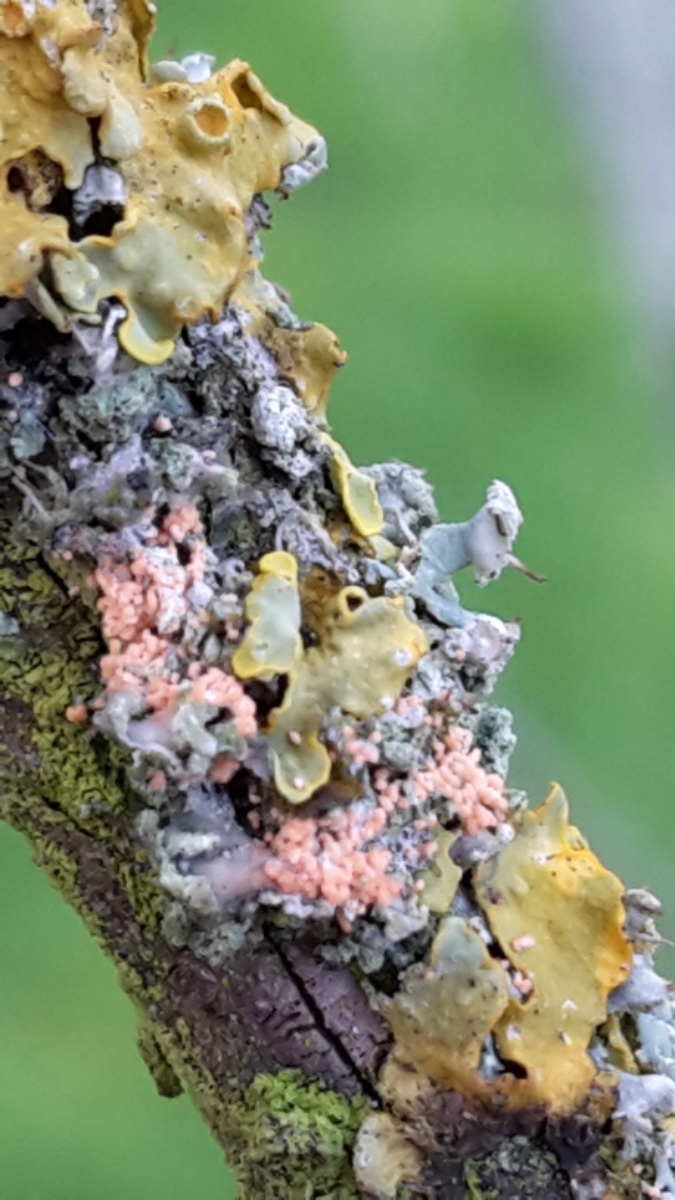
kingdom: Fungi
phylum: Basidiomycota
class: Agaricomycetes
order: Corticiales
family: Corticiaceae
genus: Erythricium
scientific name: Erythricium aurantiacum
